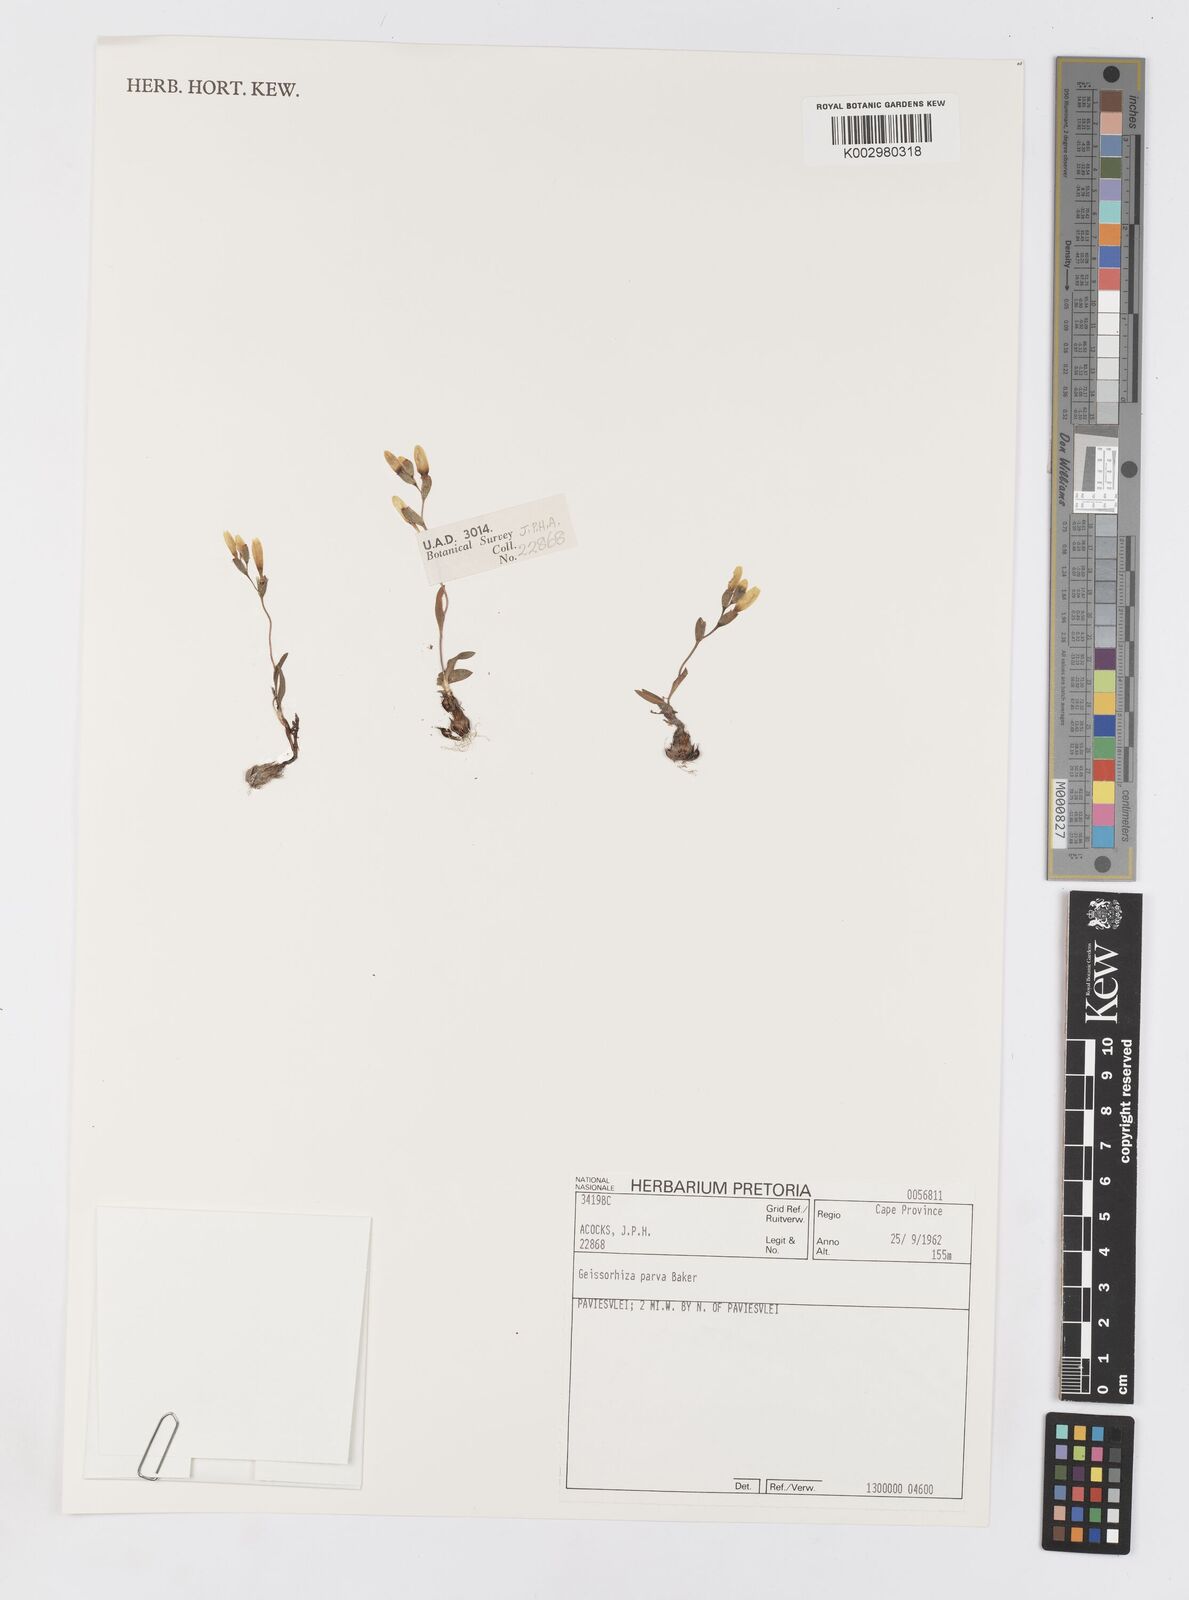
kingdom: Plantae
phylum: Tracheophyta
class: Liliopsida
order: Asparagales
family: Iridaceae
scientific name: Iridaceae
